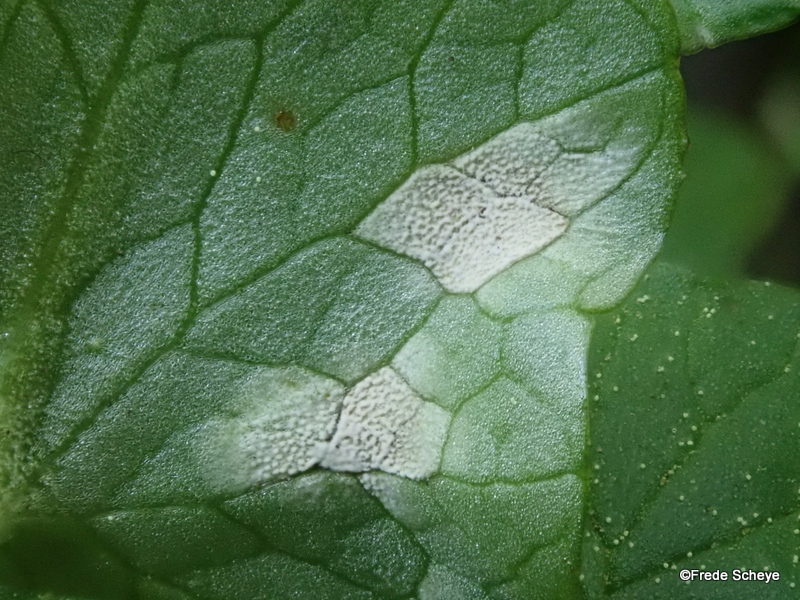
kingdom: Fungi
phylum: Basidiomycota
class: Exobasidiomycetes
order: Entylomatales
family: Entylomataceae
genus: Entyloma
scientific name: Entyloma ficariae
